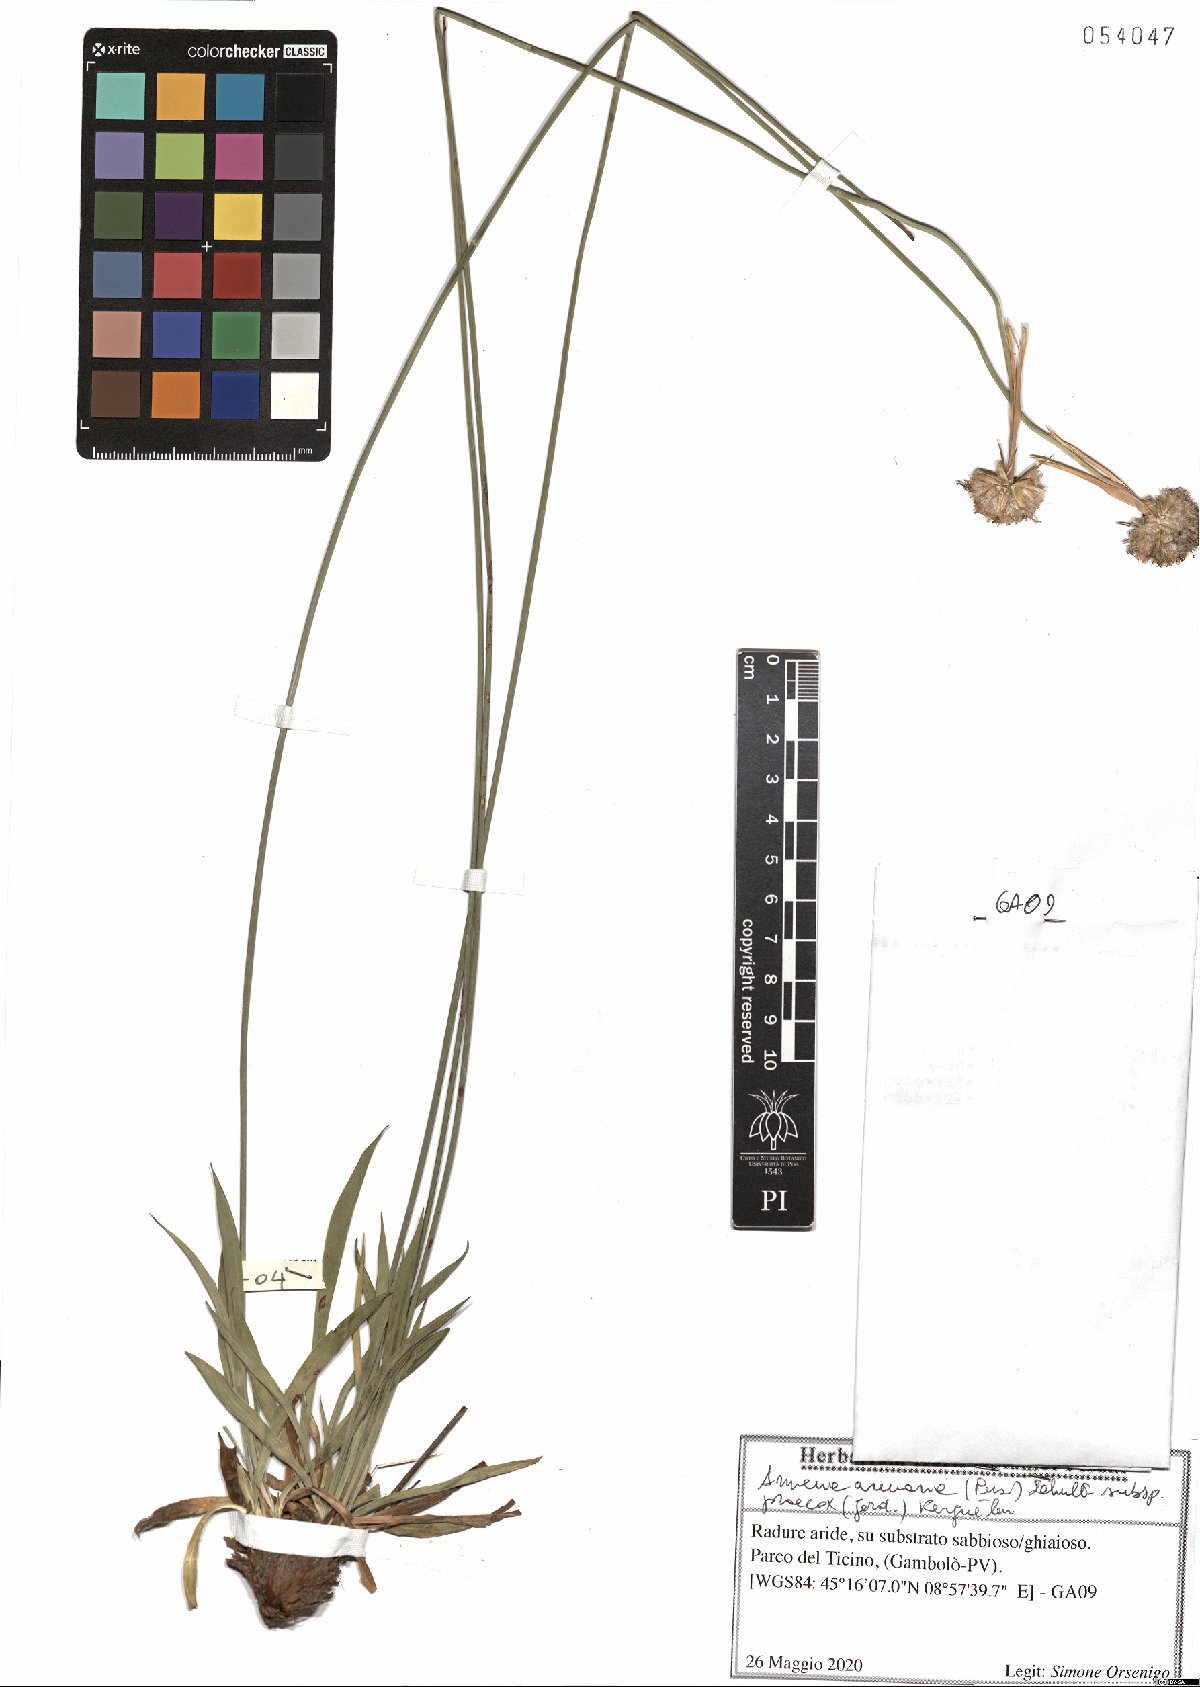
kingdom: Plantae
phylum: Tracheophyta
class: Magnoliopsida
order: Caryophyllales
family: Plumbaginaceae
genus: Armeria
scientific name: Armeria arenaria
